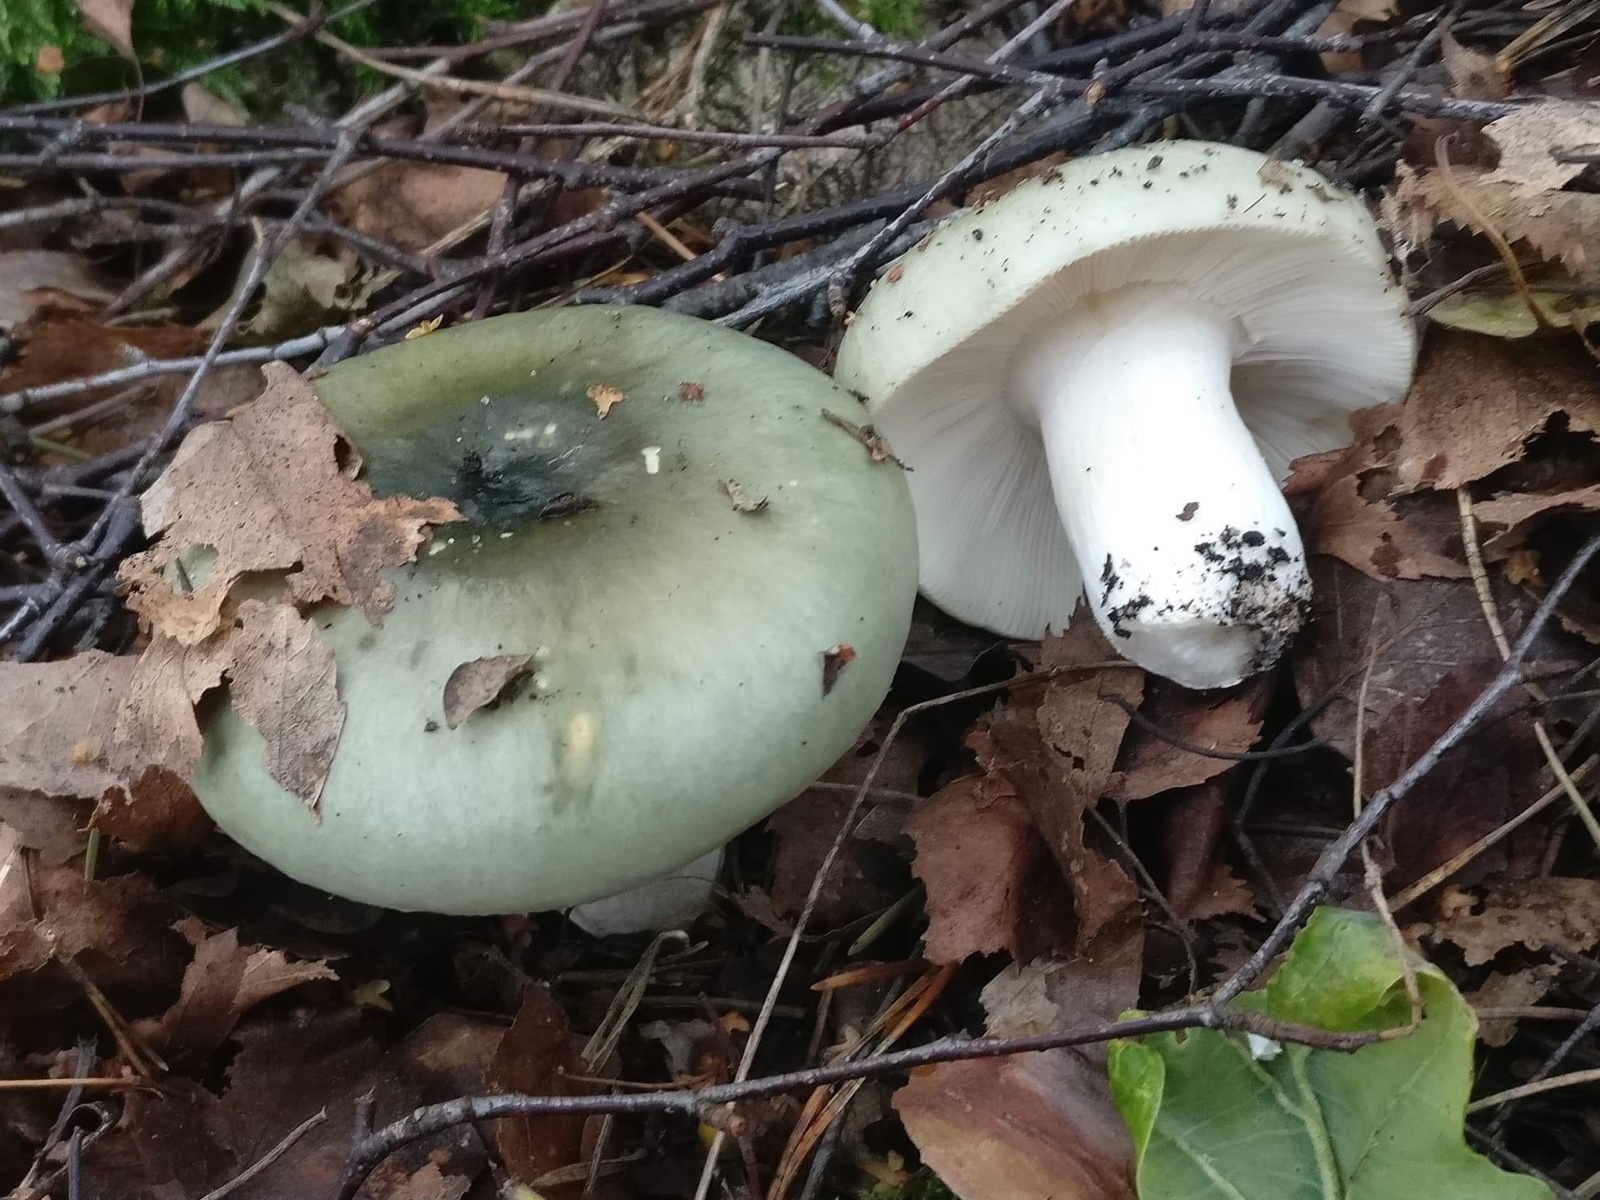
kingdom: Fungi
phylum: Basidiomycota
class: Agaricomycetes
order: Russulales
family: Russulaceae
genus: Russula
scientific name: Russula aeruginea
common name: græsgrøn skørhat
